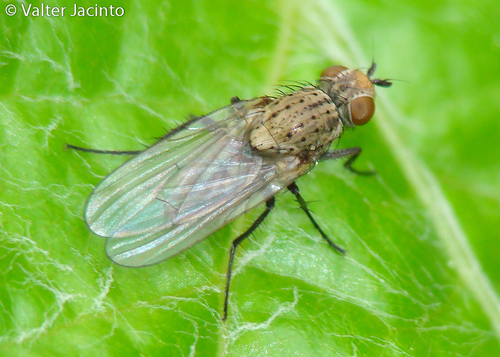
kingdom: Animalia
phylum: Arthropoda
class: Insecta
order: Diptera
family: Anthomyiidae
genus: Delia
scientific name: Delia platura
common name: Seedcorn maggot
